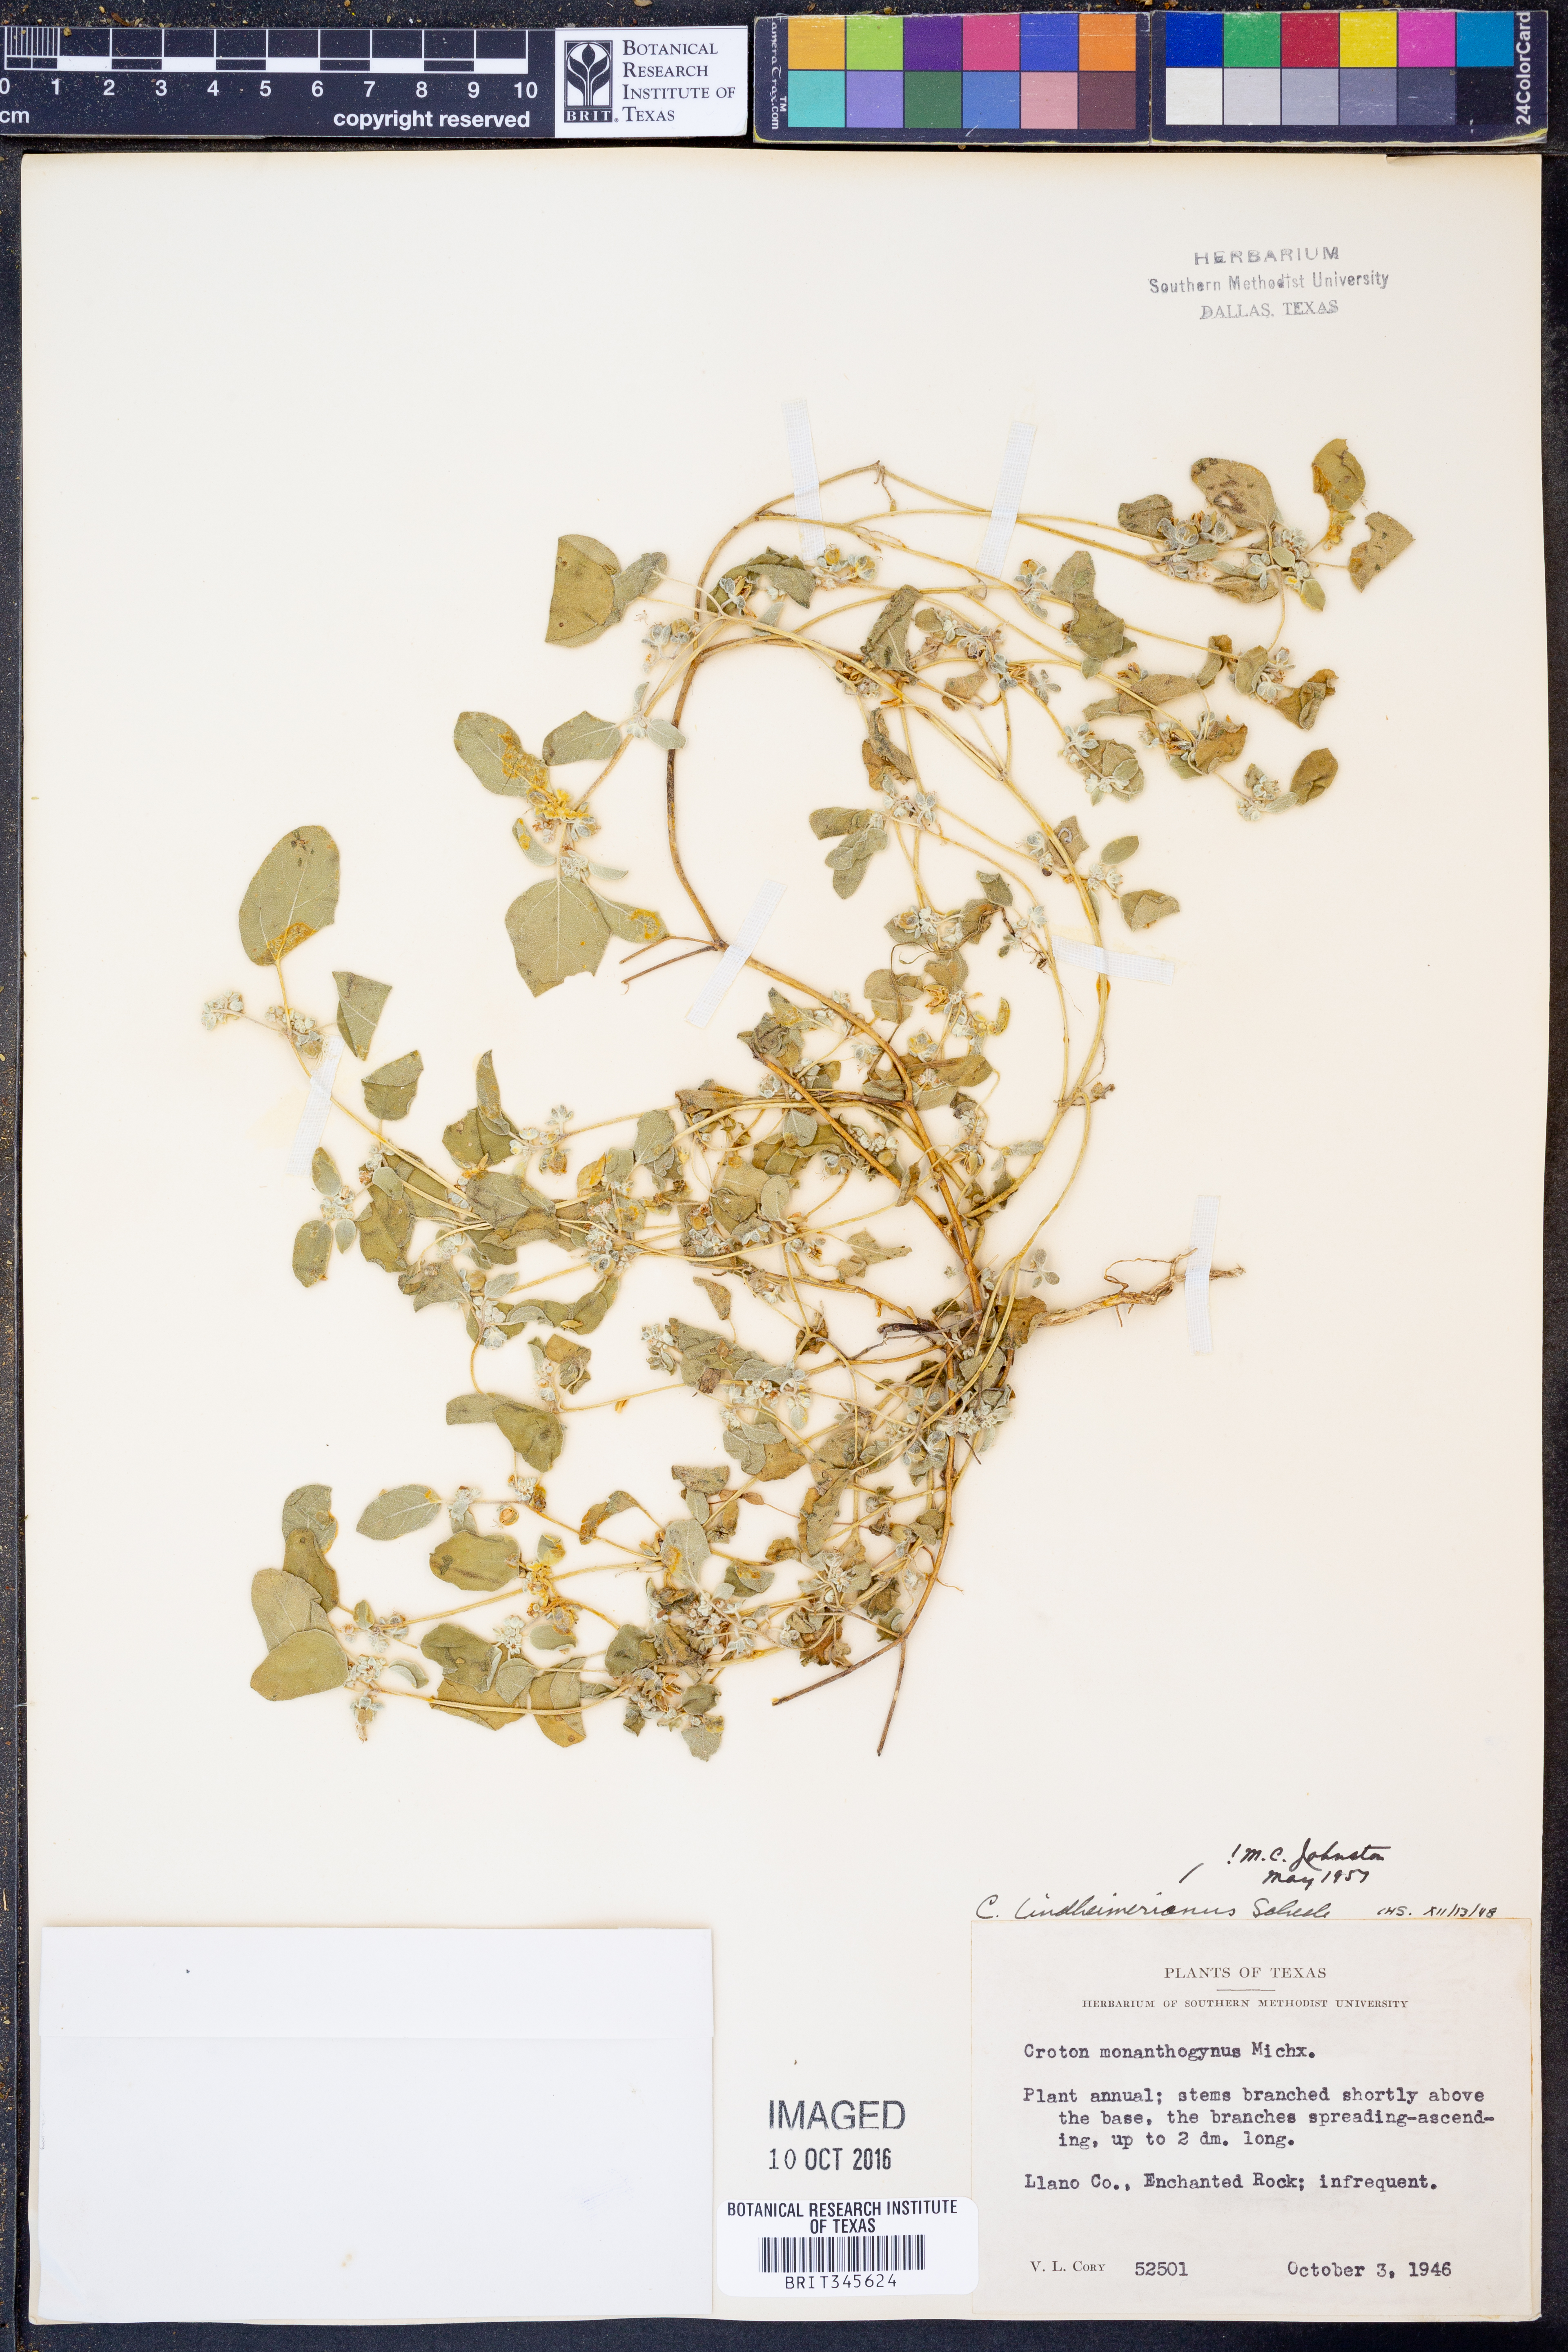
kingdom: Plantae
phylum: Tracheophyta
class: Magnoliopsida
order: Malpighiales
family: Euphorbiaceae
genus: Croton
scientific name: Croton lindheimerianus
